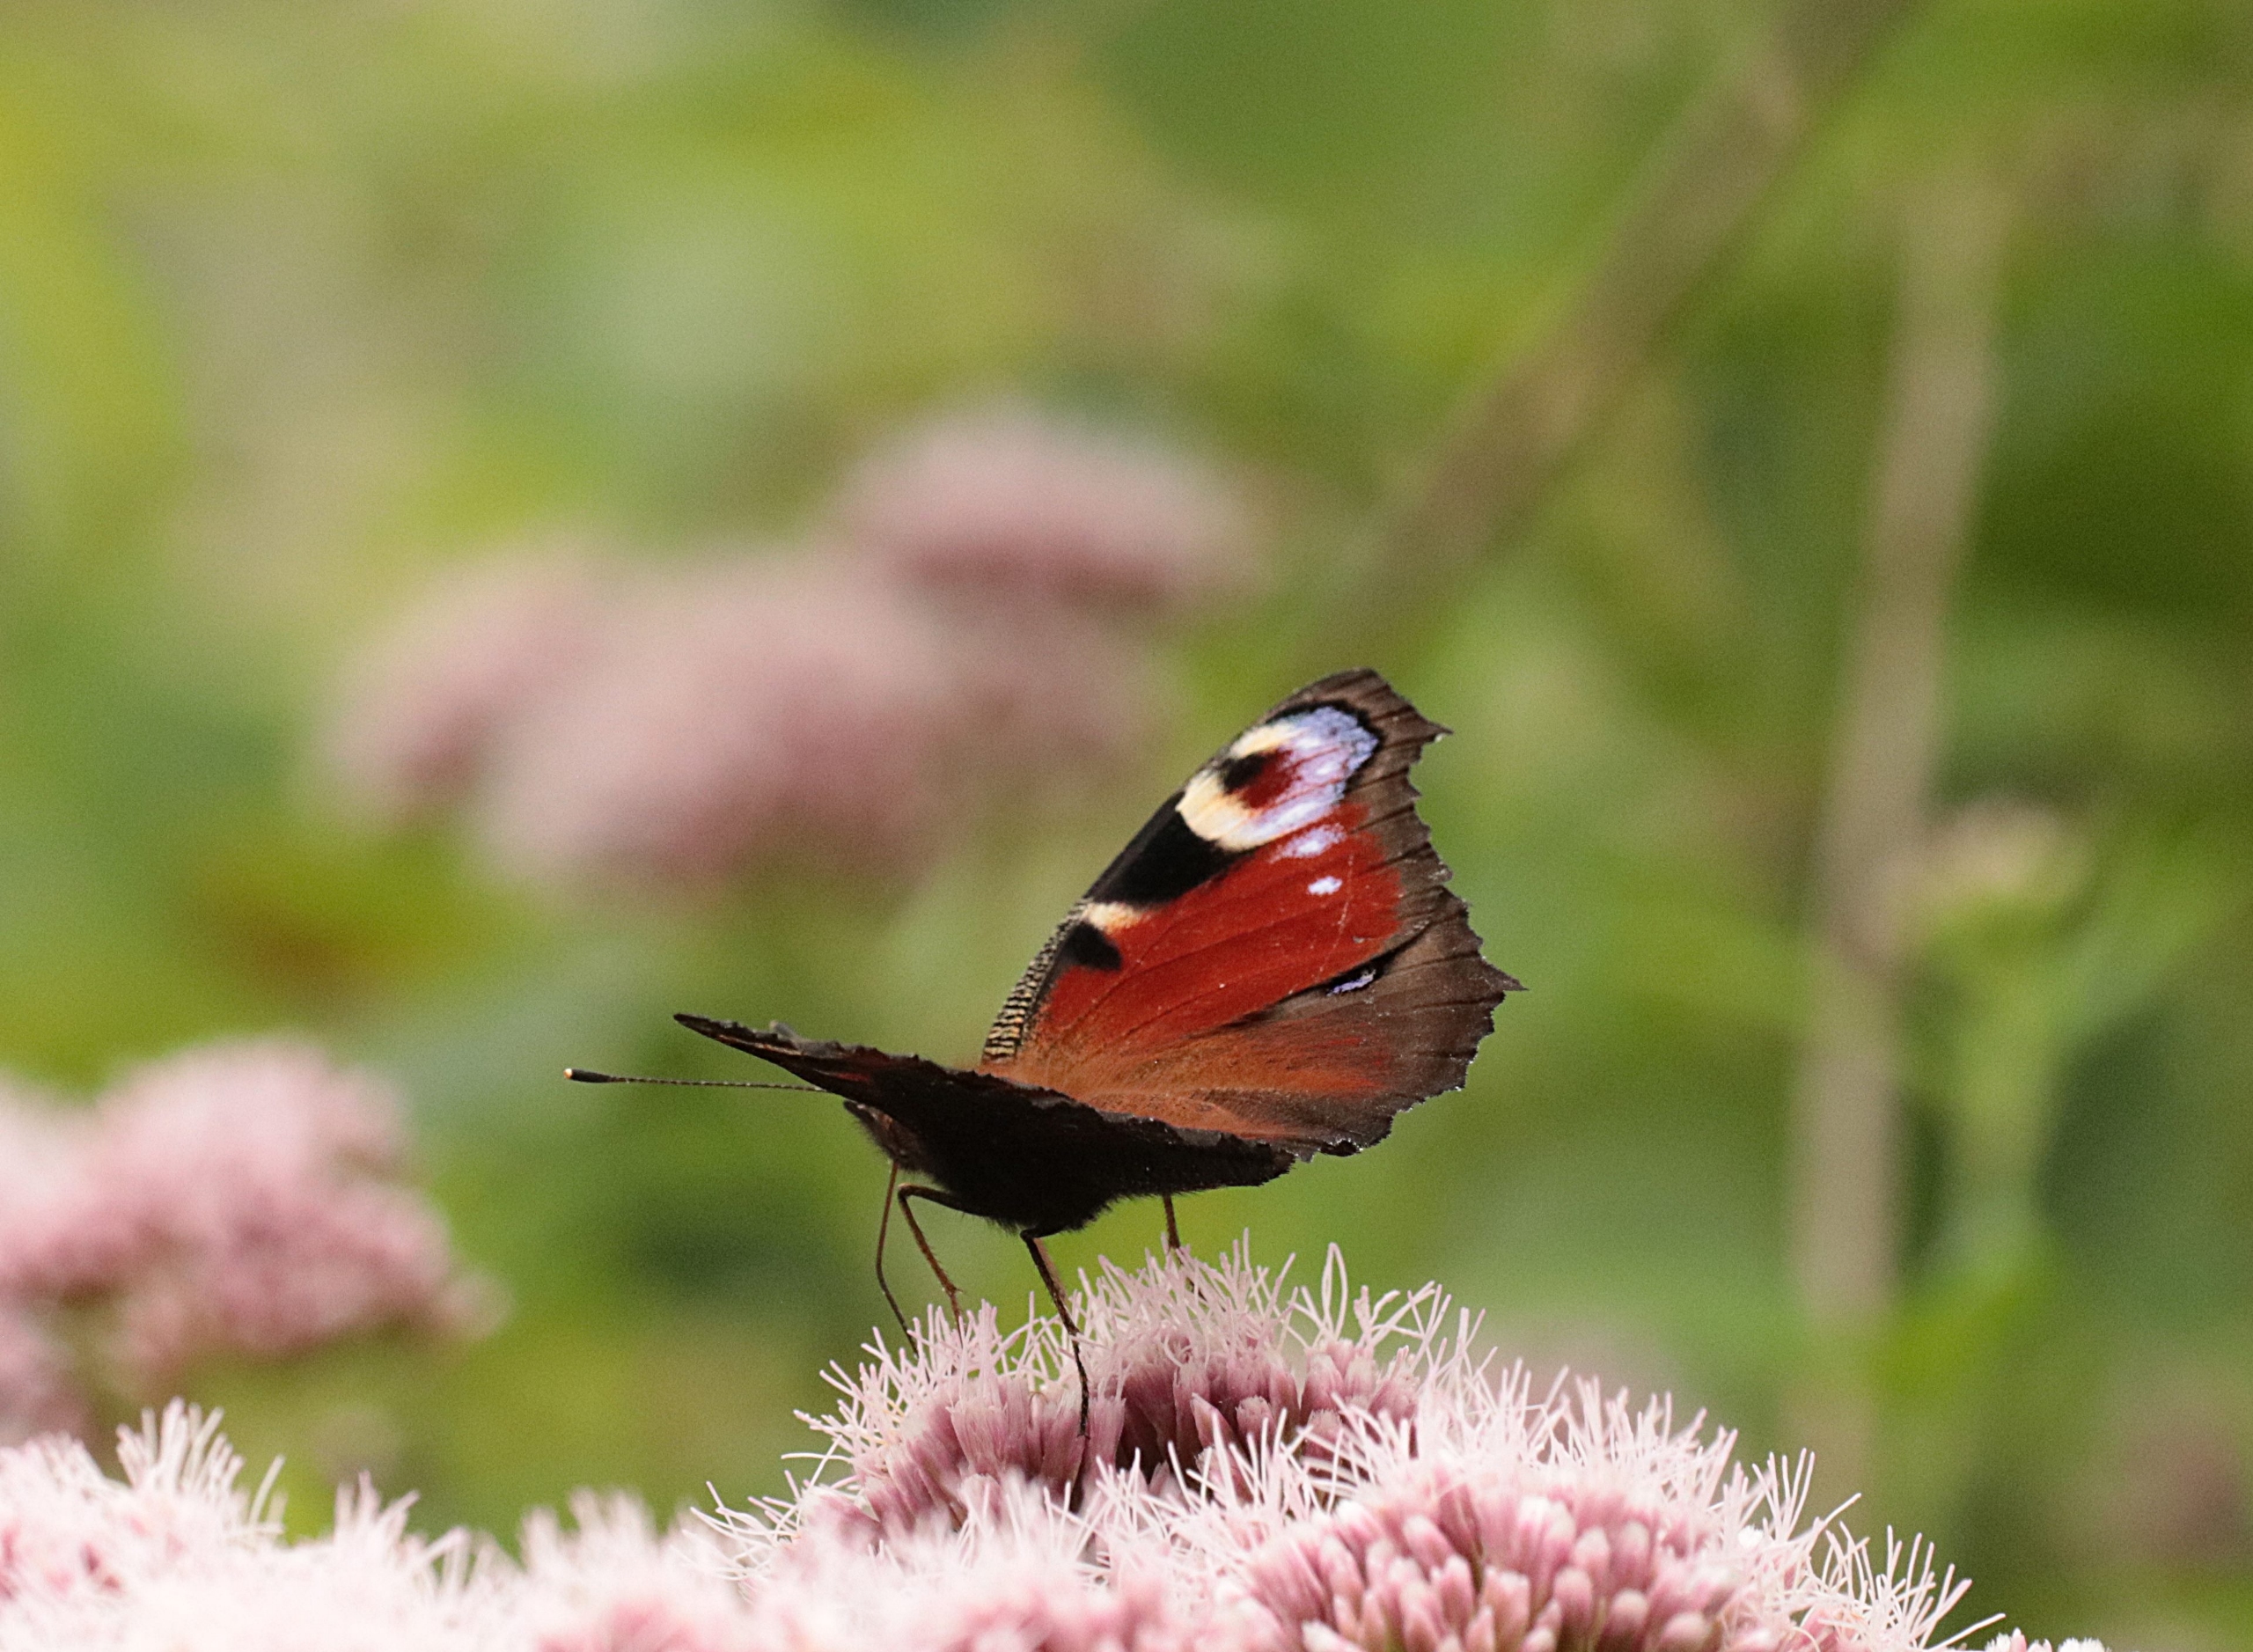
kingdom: Animalia
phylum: Arthropoda
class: Insecta
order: Lepidoptera
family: Nymphalidae
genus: Aglais
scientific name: Aglais io
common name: Dagpåfugleøje
